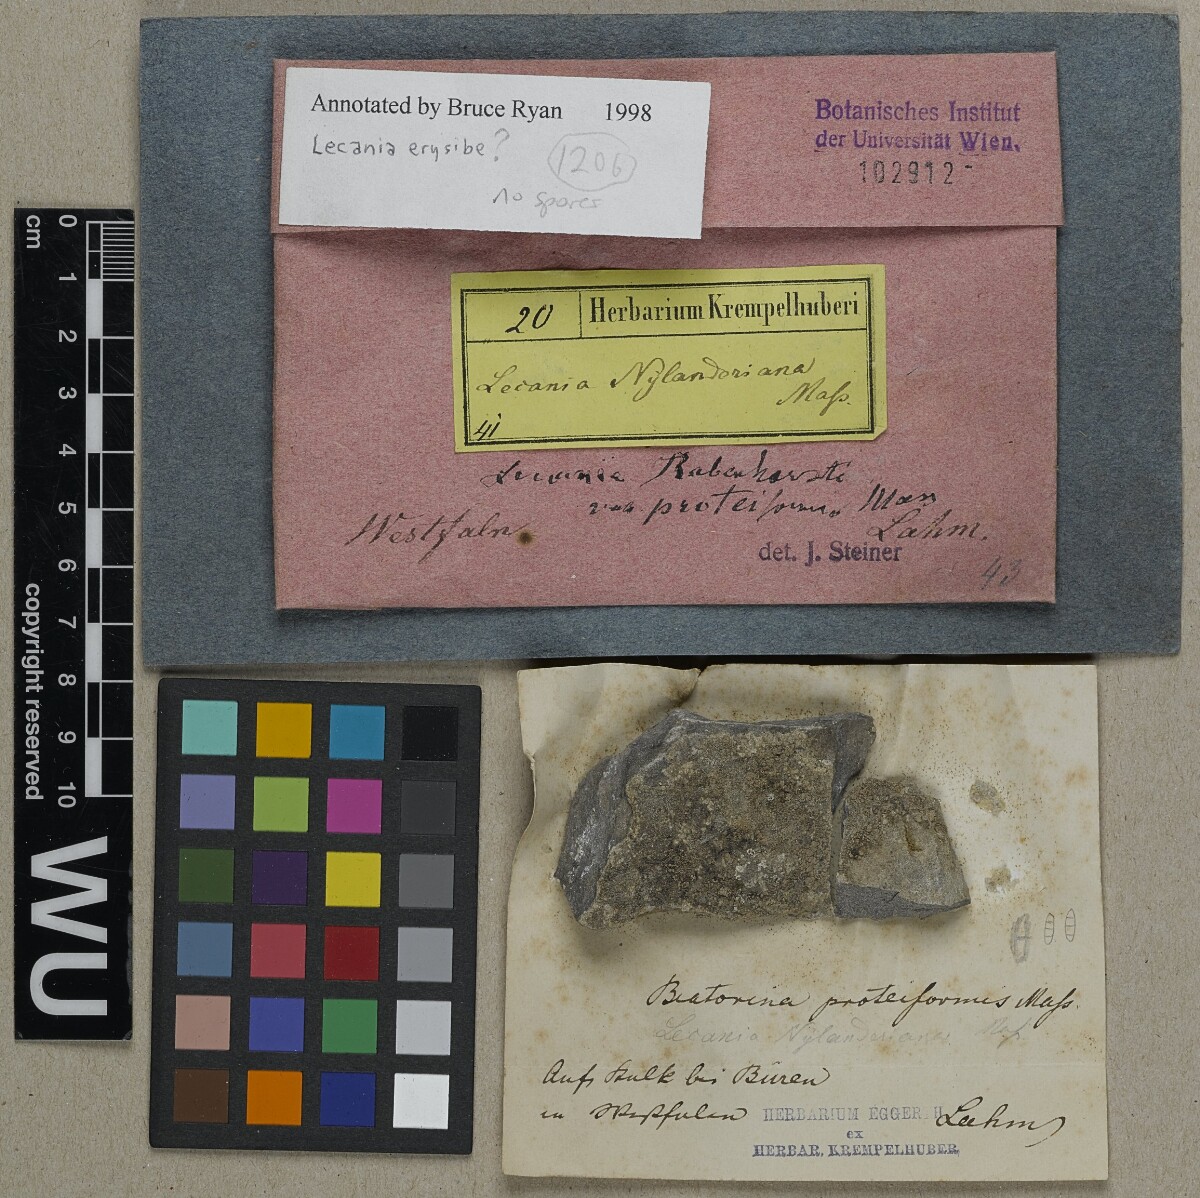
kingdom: Fungi
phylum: Ascomycota
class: Lecanoromycetes
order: Lecanorales
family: Ramalinaceae
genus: Lecania
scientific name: Lecania erysibe
